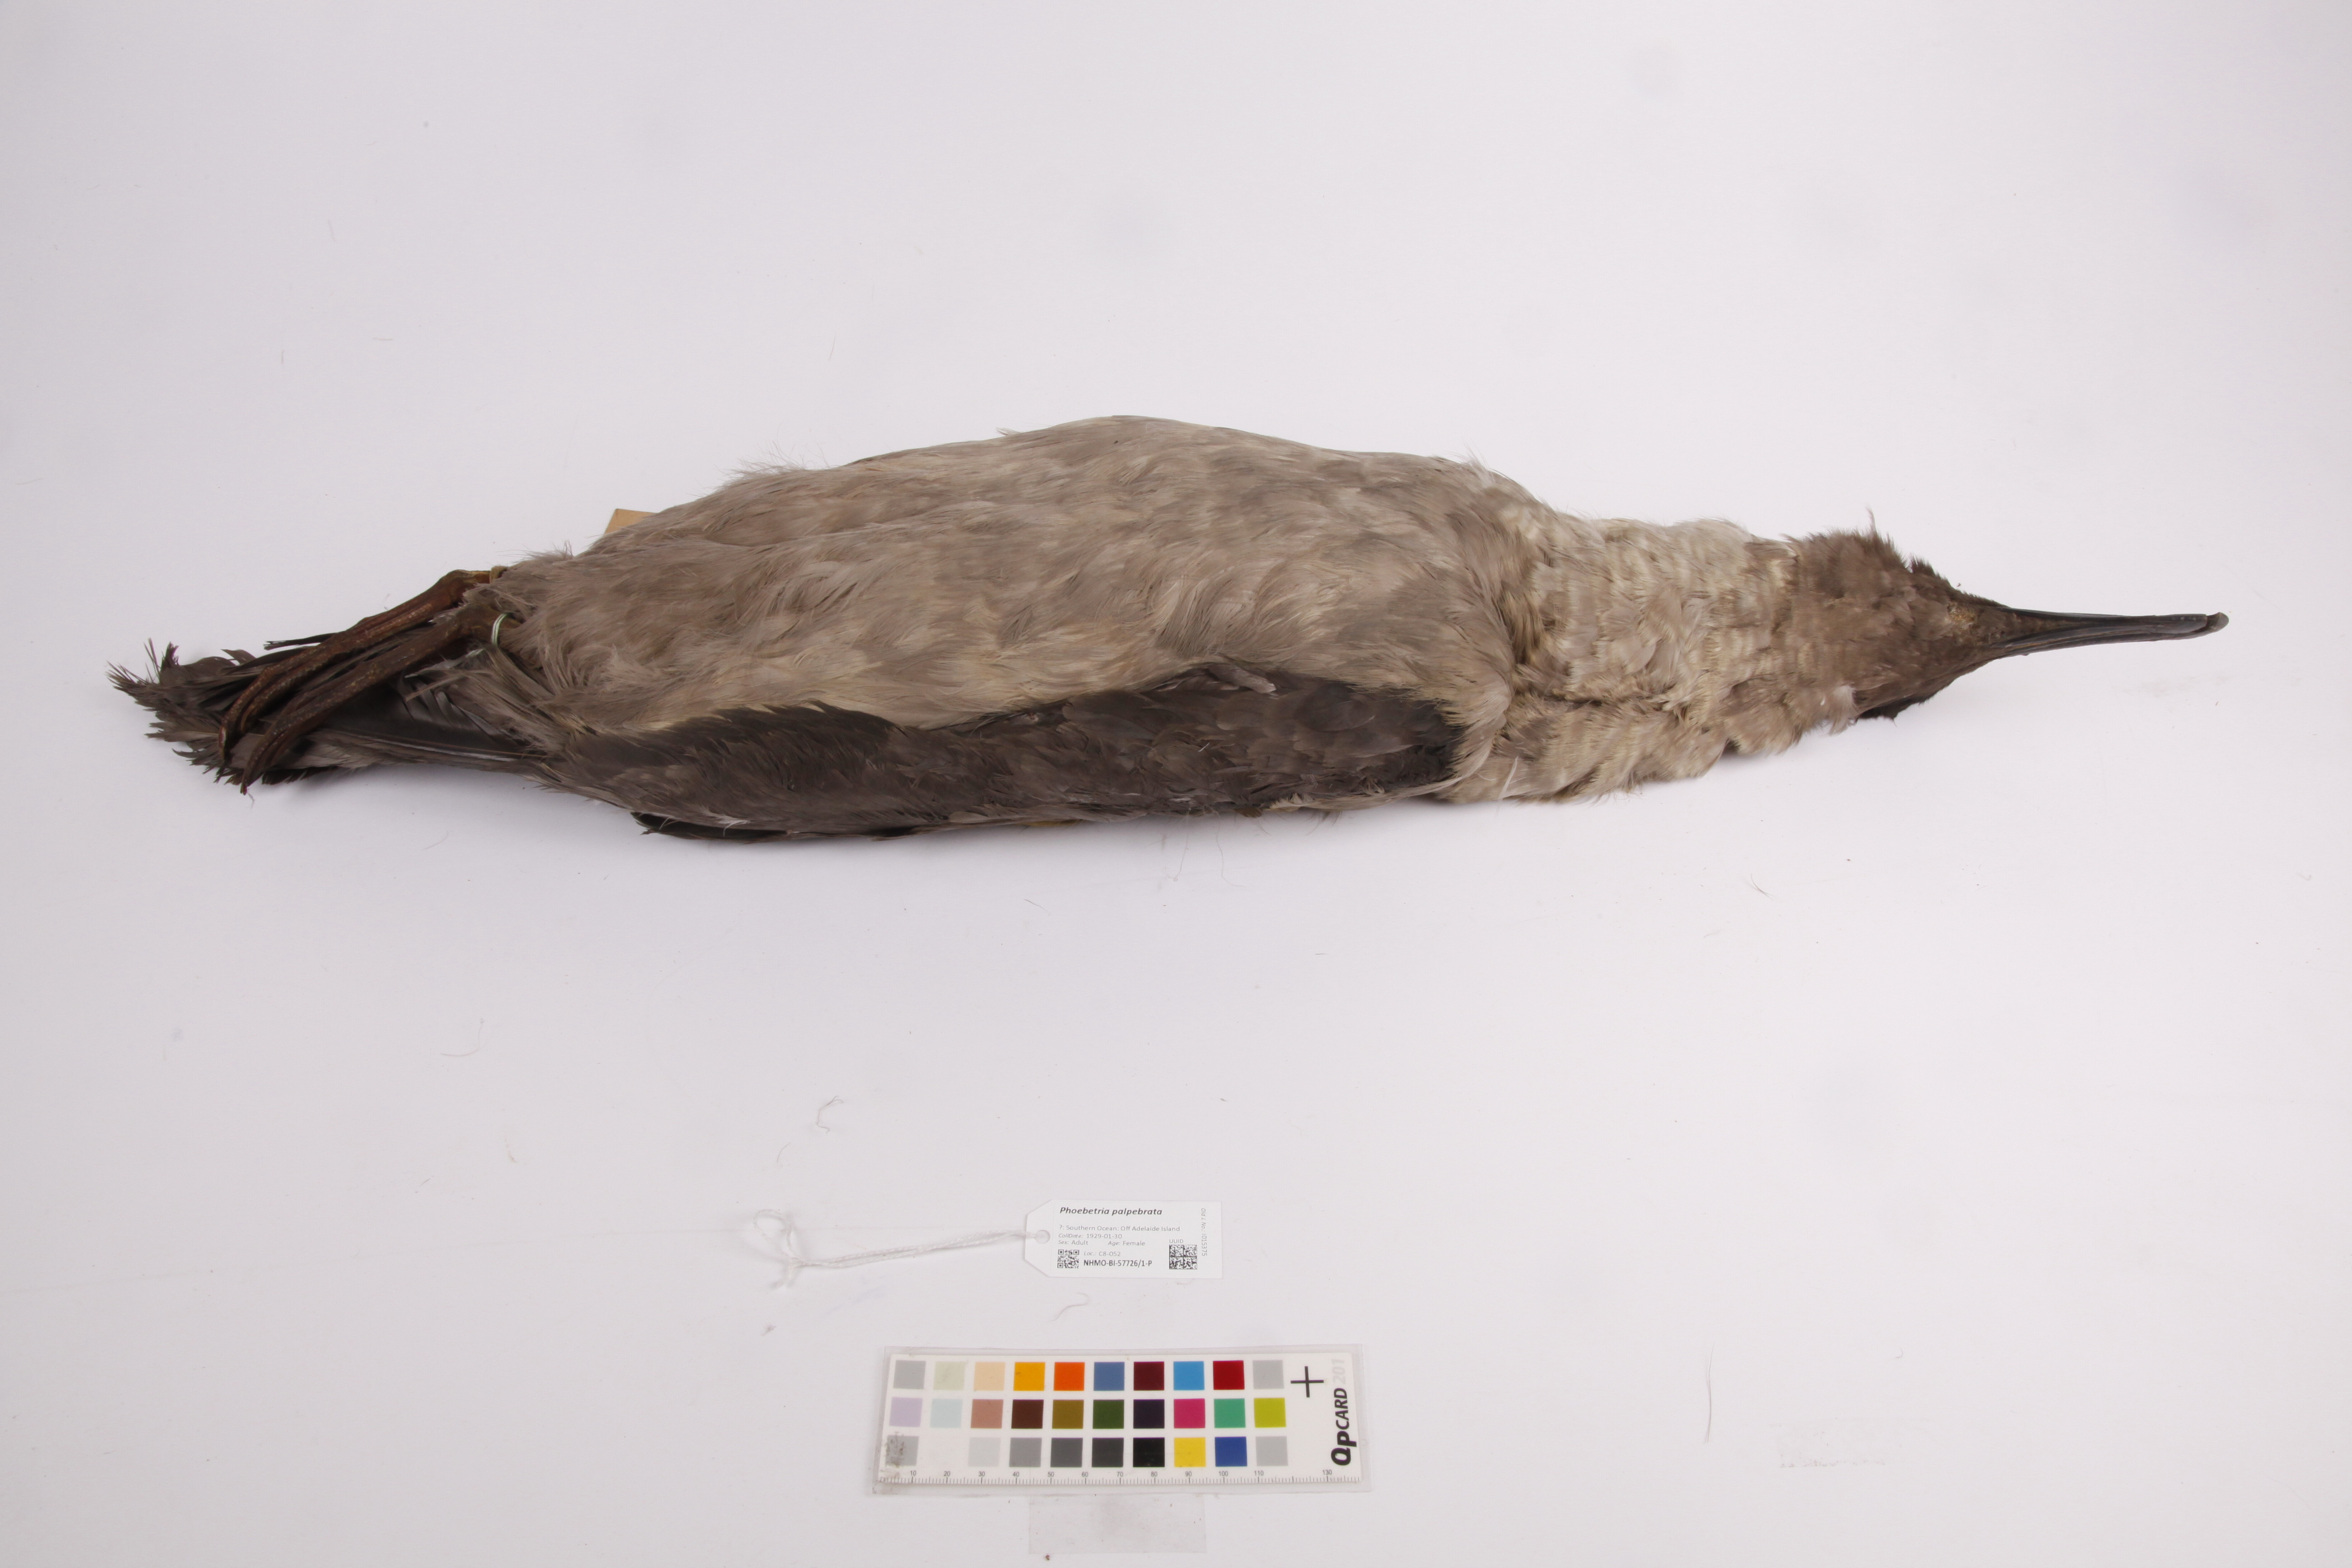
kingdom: Animalia
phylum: Chordata
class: Aves
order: Procellariiformes
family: Diomedeidae
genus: Phoebetria
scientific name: Phoebetria palpebrata
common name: Light-mantled albatross
